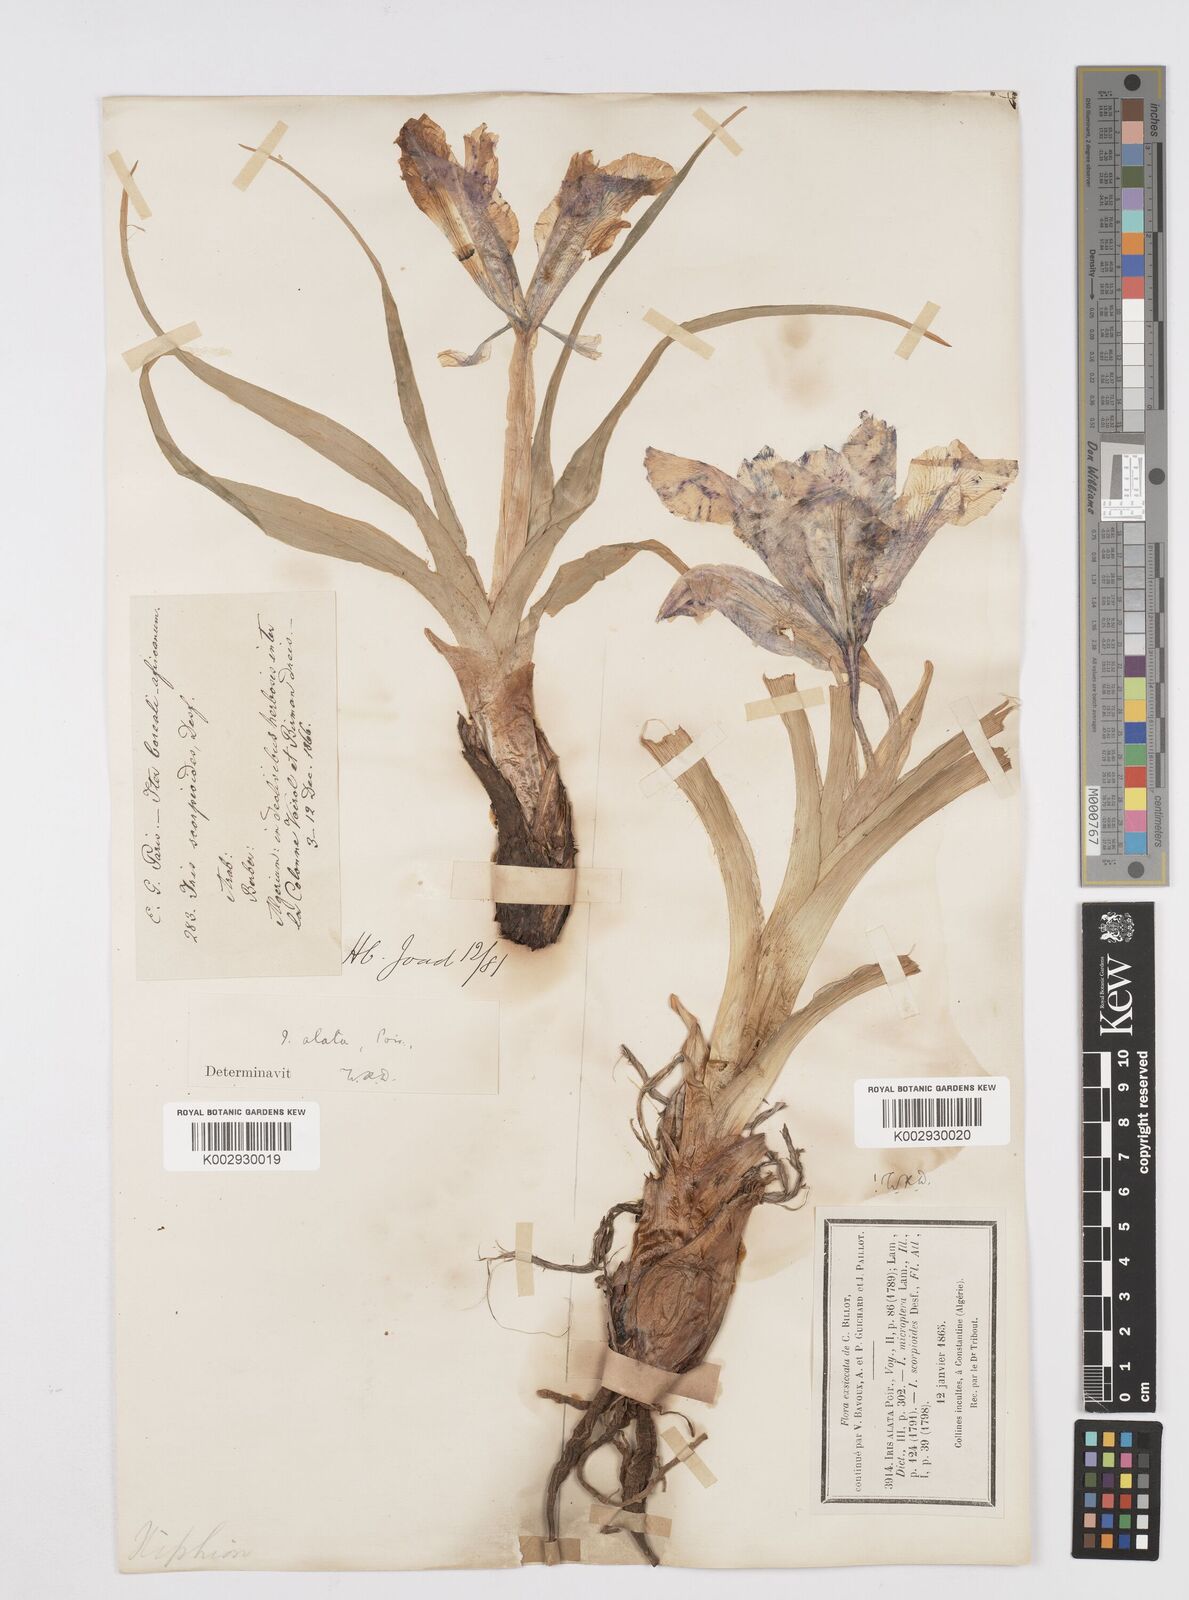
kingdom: Plantae
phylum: Tracheophyta
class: Liliopsida
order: Asparagales
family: Iridaceae
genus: Iris
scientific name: Iris planifolia
